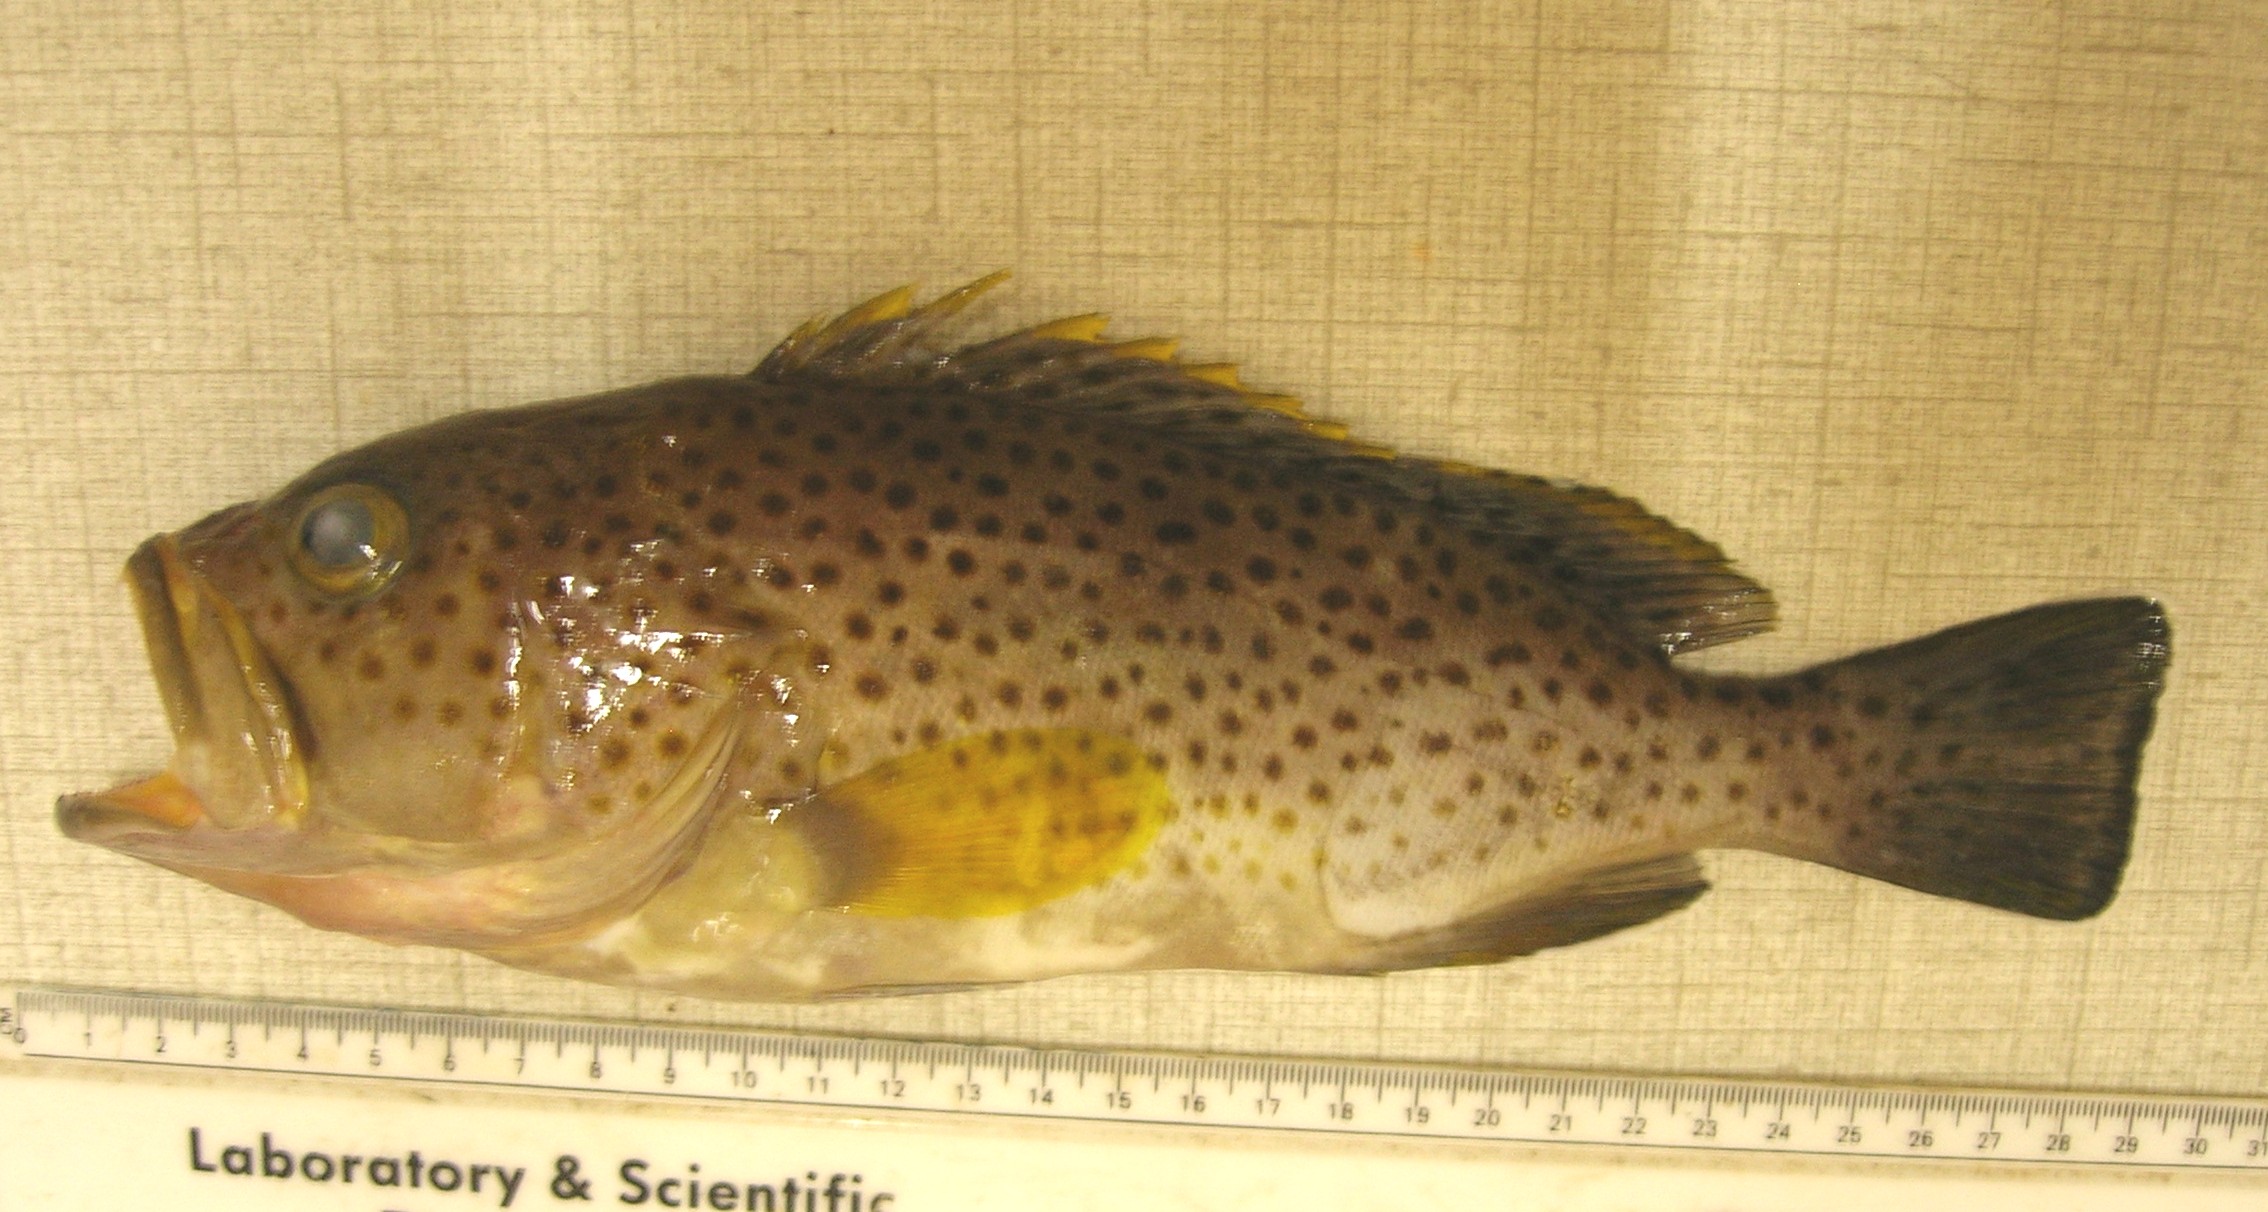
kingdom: Animalia
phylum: Chordata
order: Perciformes
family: Serranidae
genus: Epinephelus
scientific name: Epinephelus albomarginatus
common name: Captain fine
